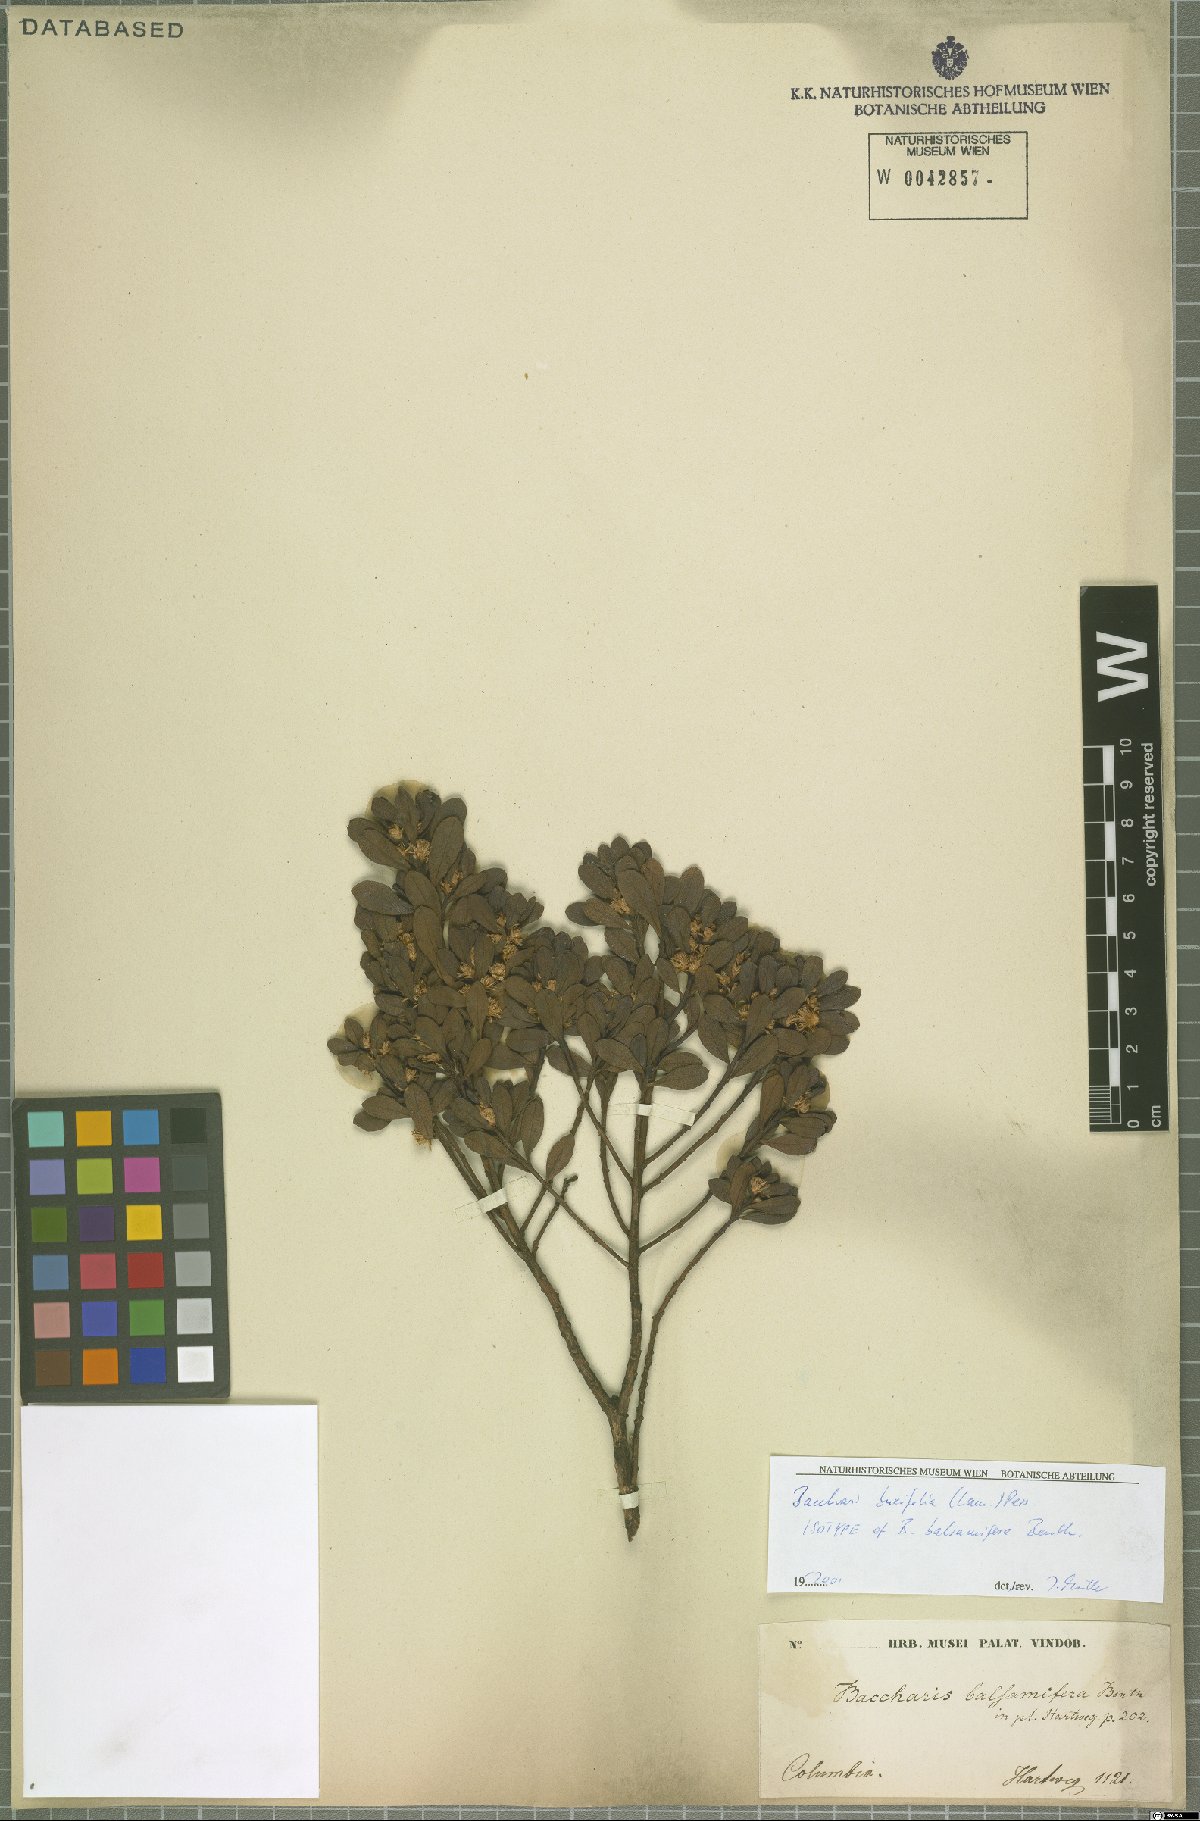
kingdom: Plantae
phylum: Tracheophyta
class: Magnoliopsida
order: Asterales
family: Asteraceae
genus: Baccharis
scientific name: Baccharis buxifolia
